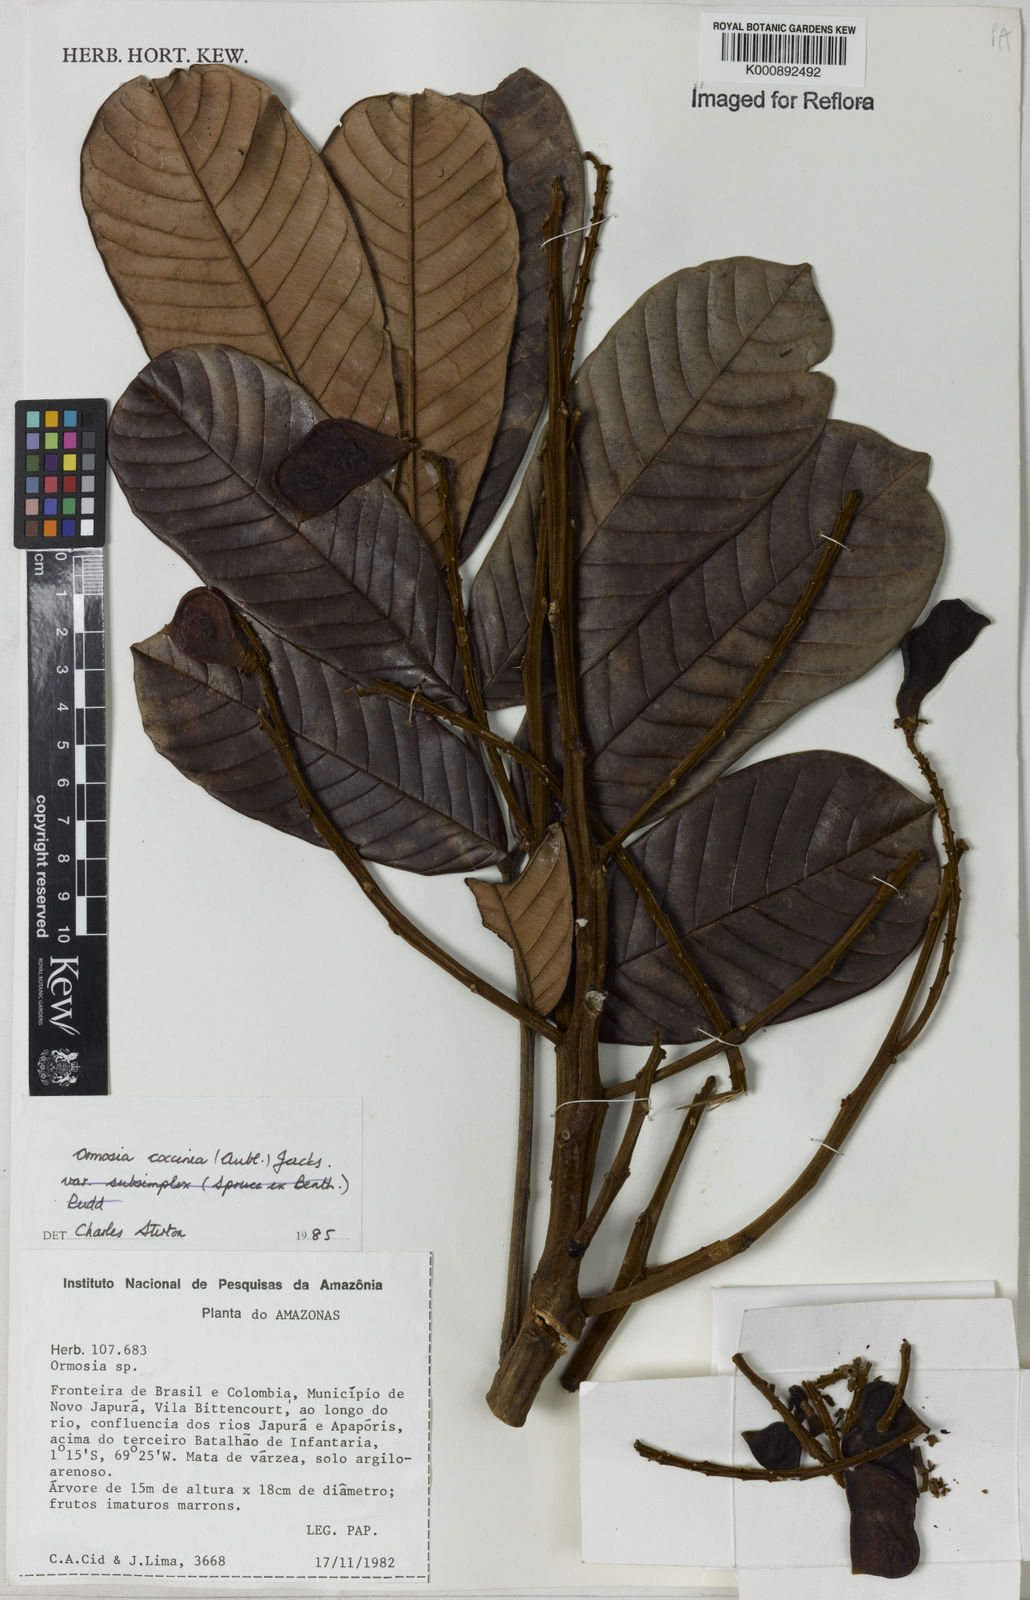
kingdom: Plantae
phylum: Tracheophyta
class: Magnoliopsida
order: Fabales
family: Fabaceae
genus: Ormosia
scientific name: Ormosia coccinea
